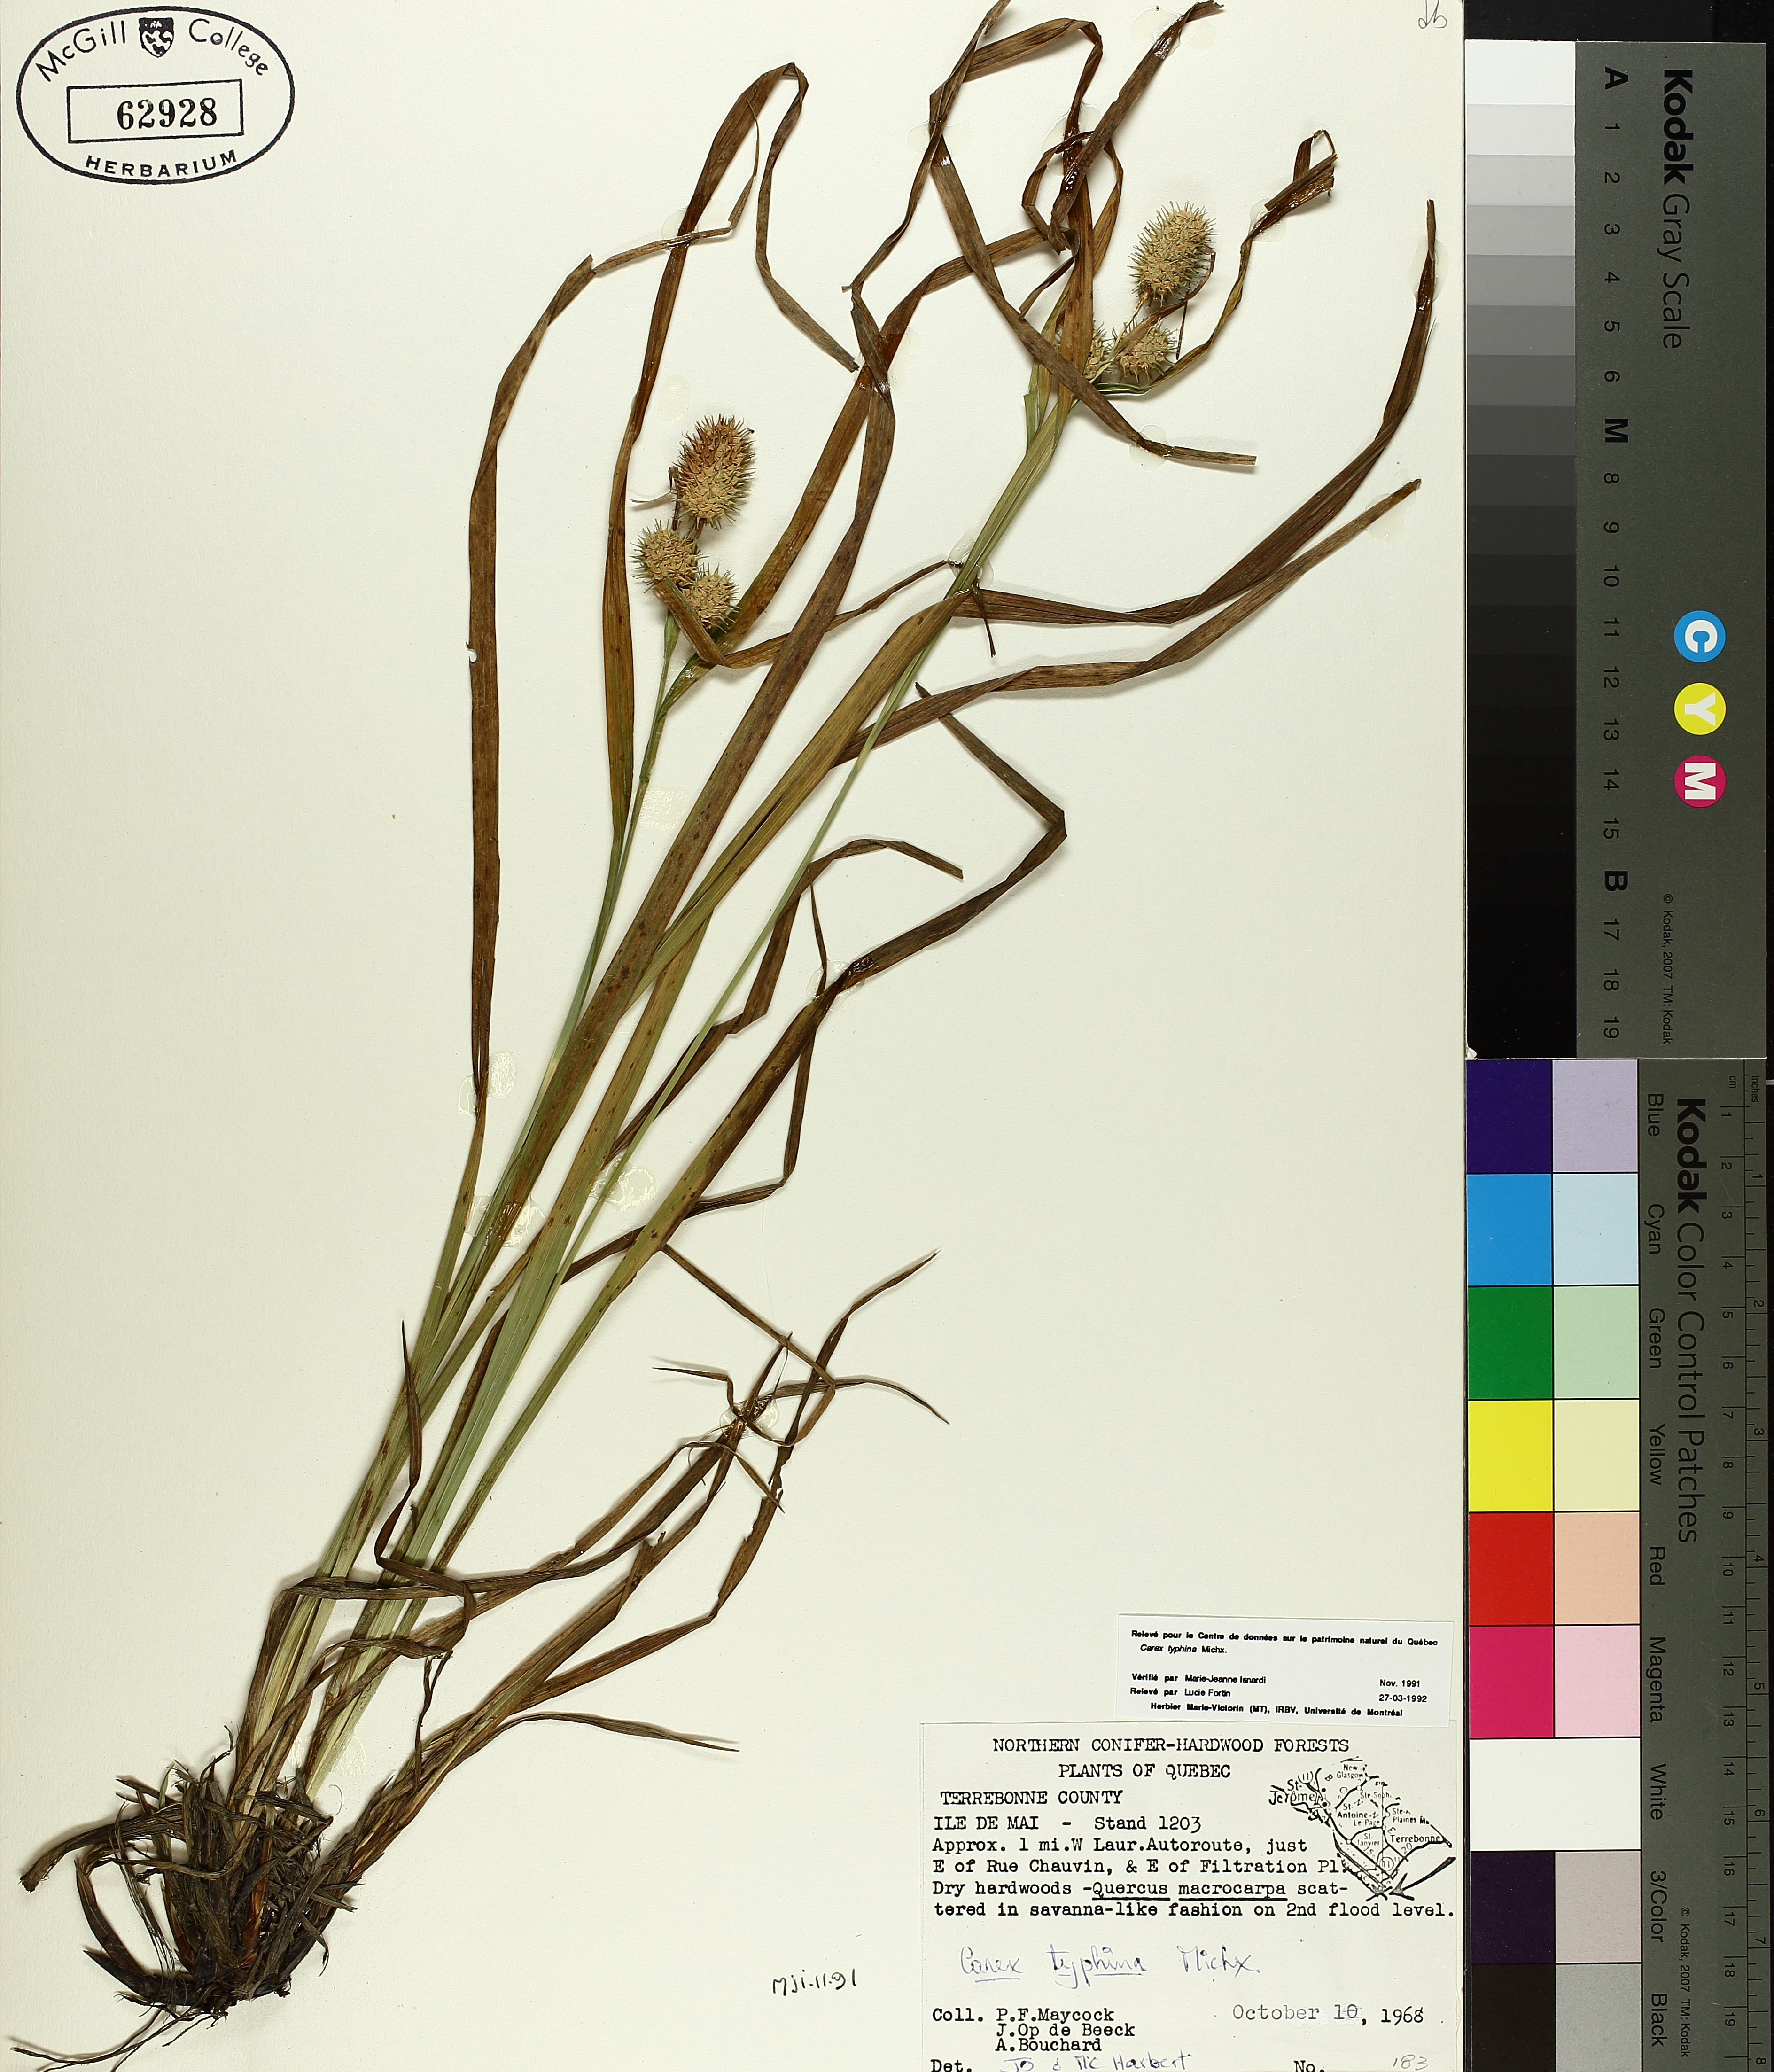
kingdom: Plantae
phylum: Tracheophyta
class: Liliopsida
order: Poales
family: Cyperaceae
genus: Carex
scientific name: Carex typhina
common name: Cattail sedge
